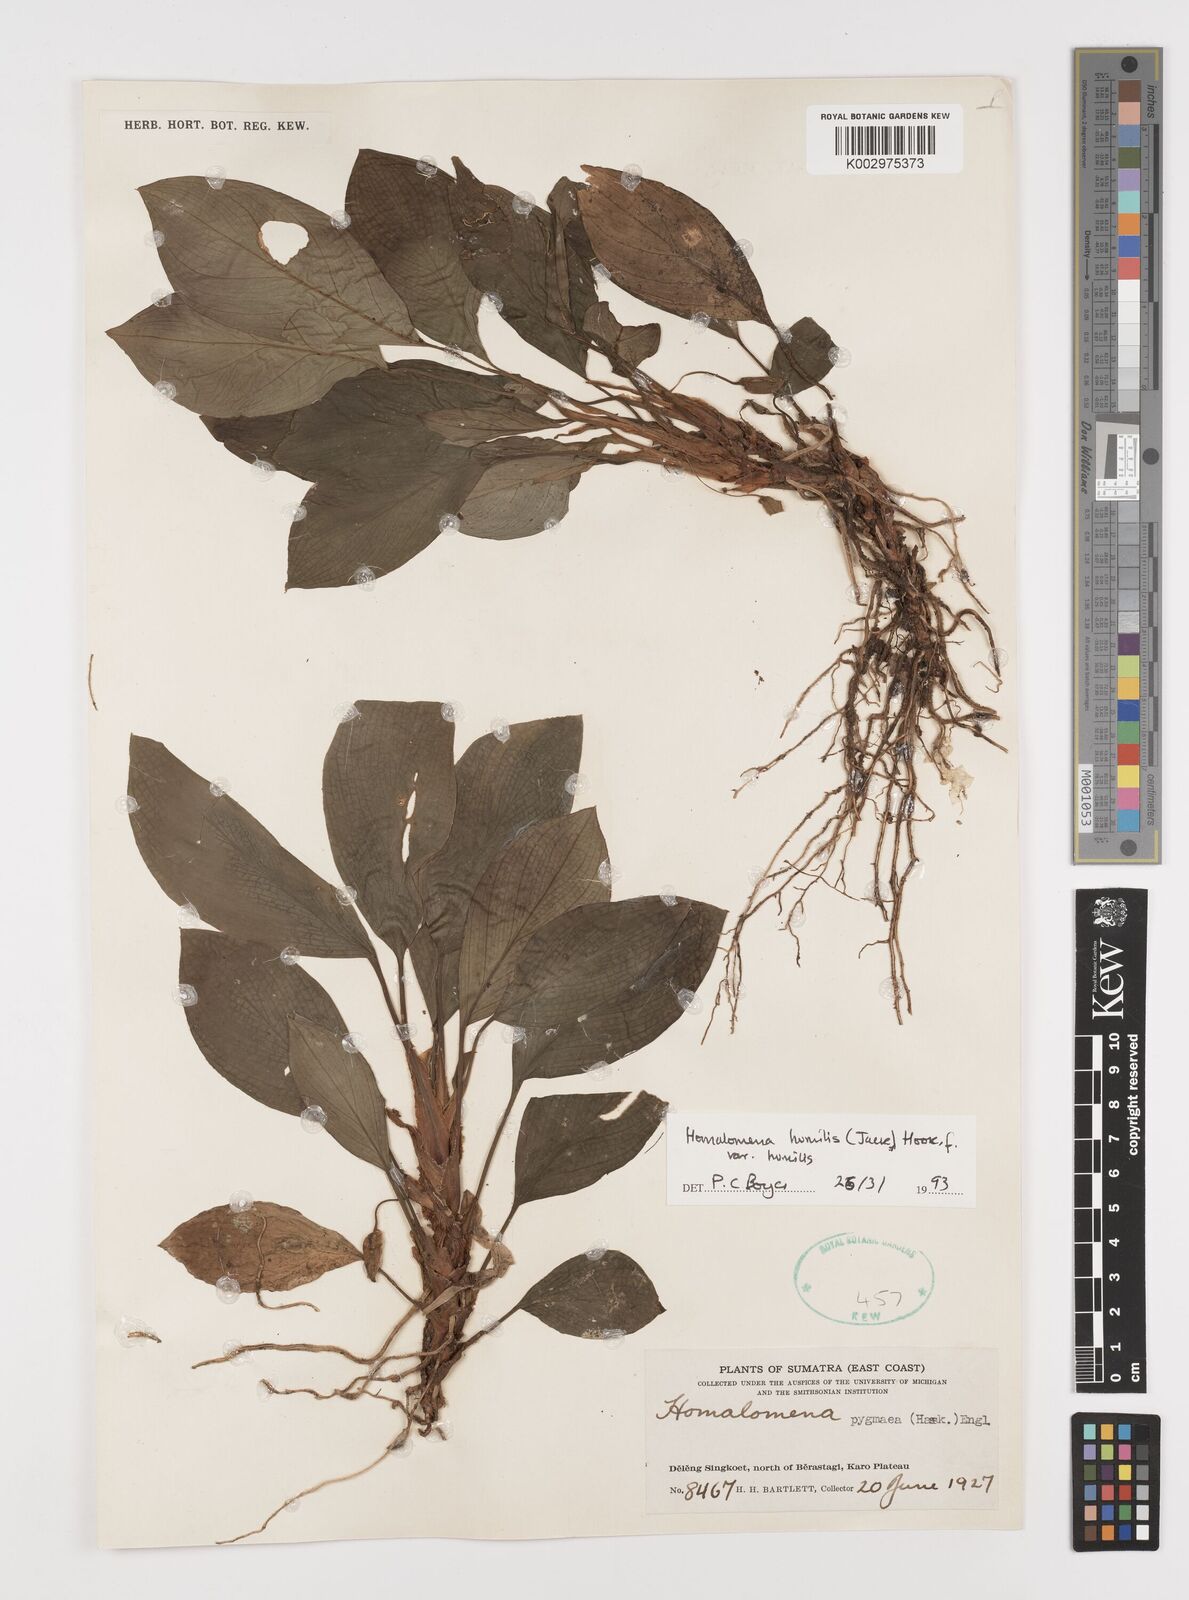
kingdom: Plantae
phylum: Tracheophyta
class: Liliopsida
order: Alismatales
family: Araceae
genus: Homalomena
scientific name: Homalomena humilis
